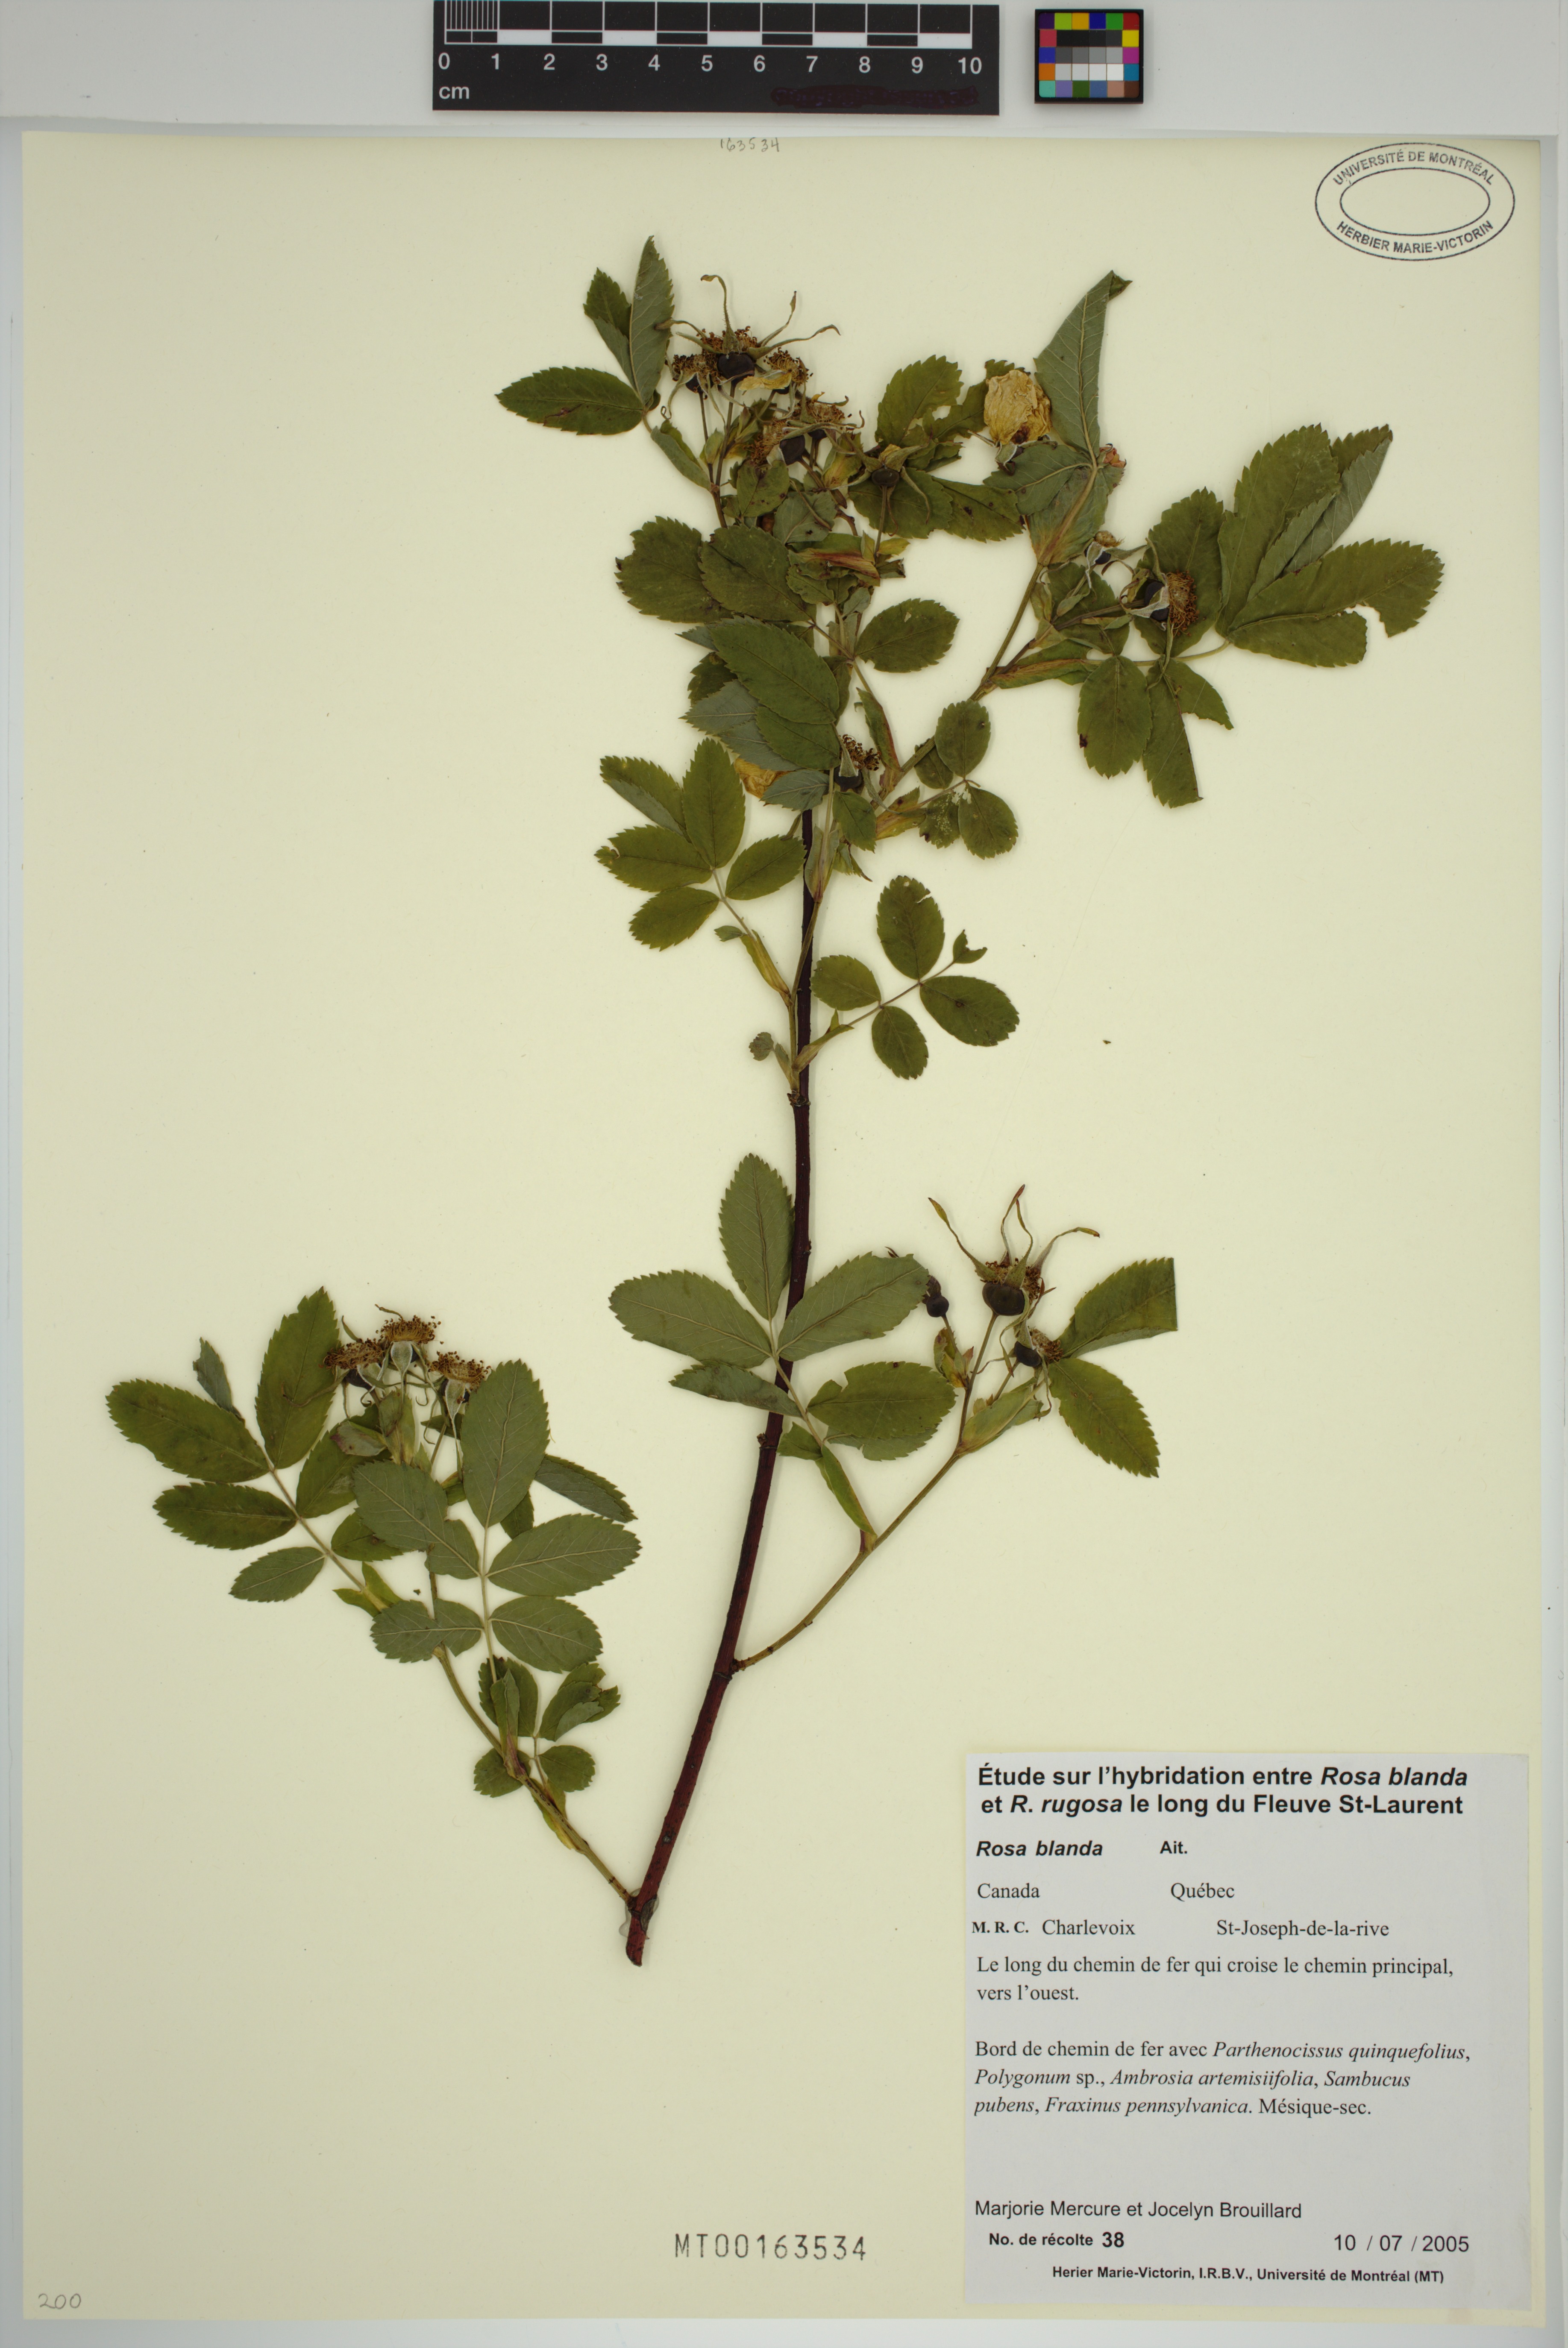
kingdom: Plantae
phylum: Tracheophyta
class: Magnoliopsida
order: Rosales
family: Rosaceae
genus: Rosa
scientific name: Rosa blanda
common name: Smooth rose
